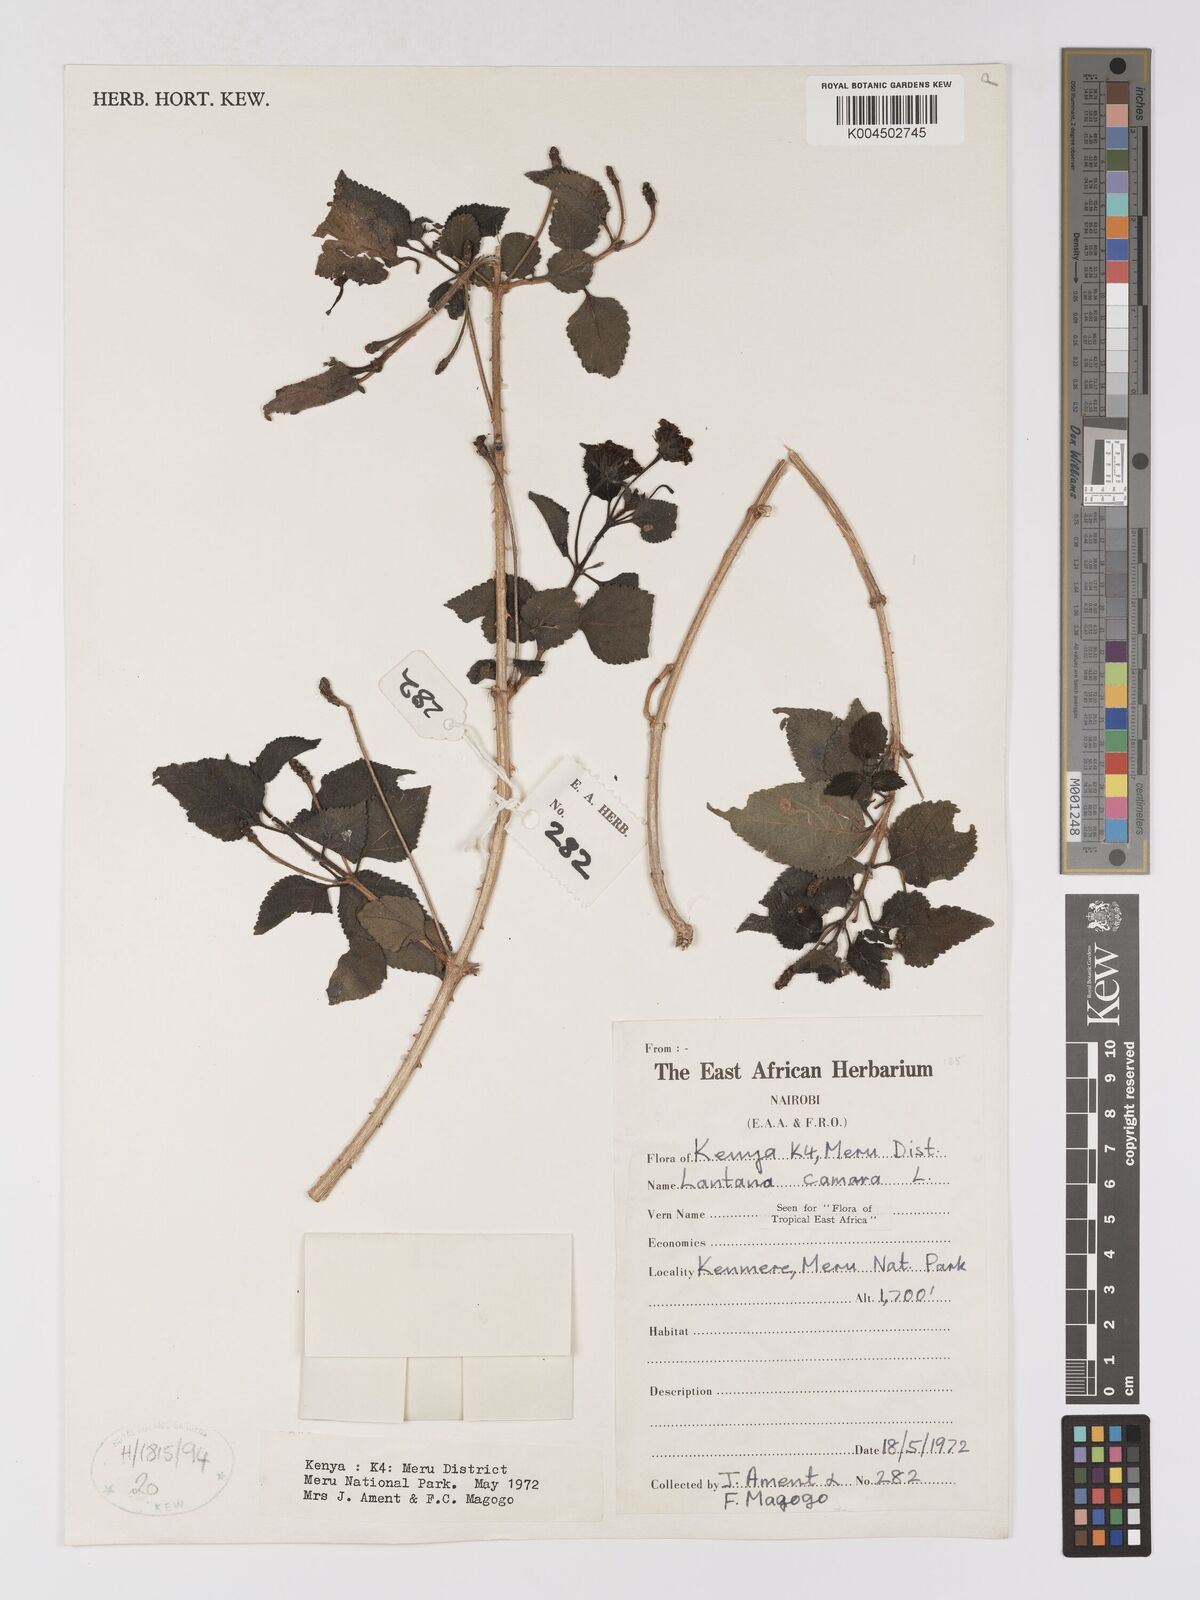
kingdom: Plantae
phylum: Tracheophyta
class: Magnoliopsida
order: Lamiales
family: Verbenaceae
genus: Lantana
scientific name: Lantana camara
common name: Lantana
